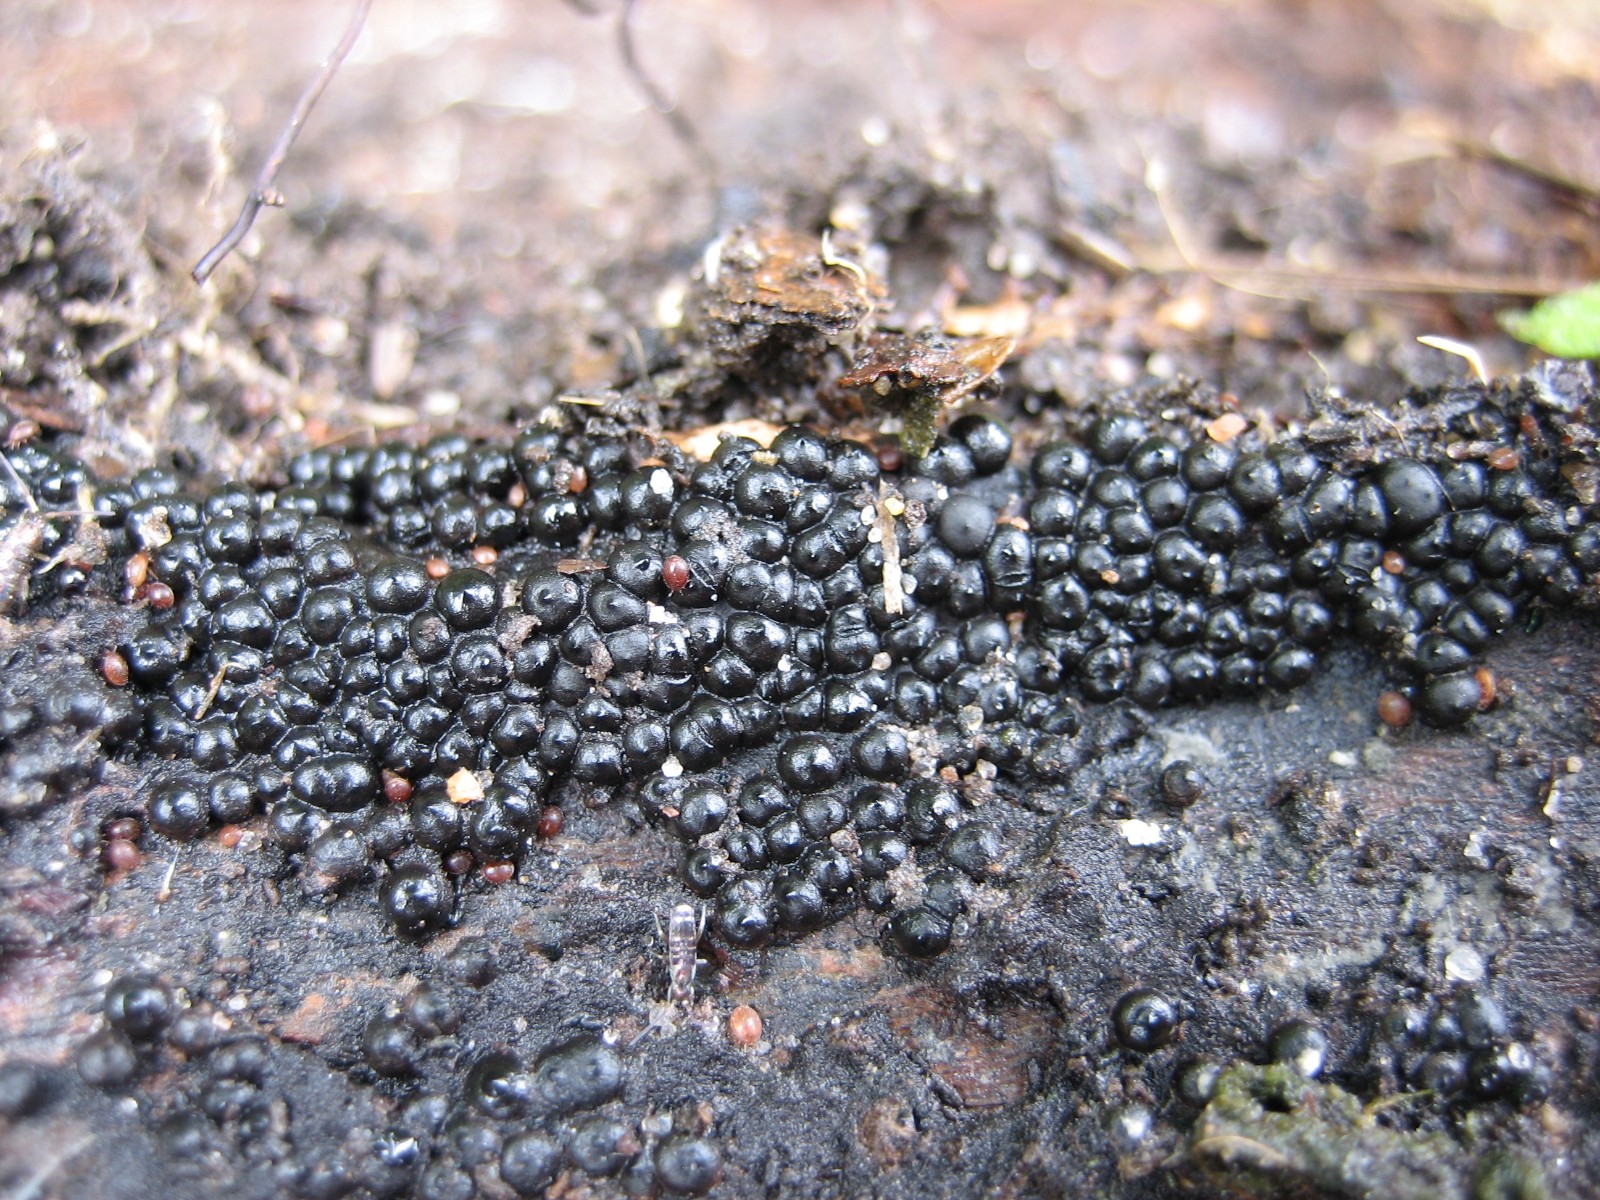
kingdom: Fungi
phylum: Ascomycota
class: Sordariomycetes
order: Xylariales
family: Xylariaceae
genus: Rosellinia
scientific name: Rosellinia
